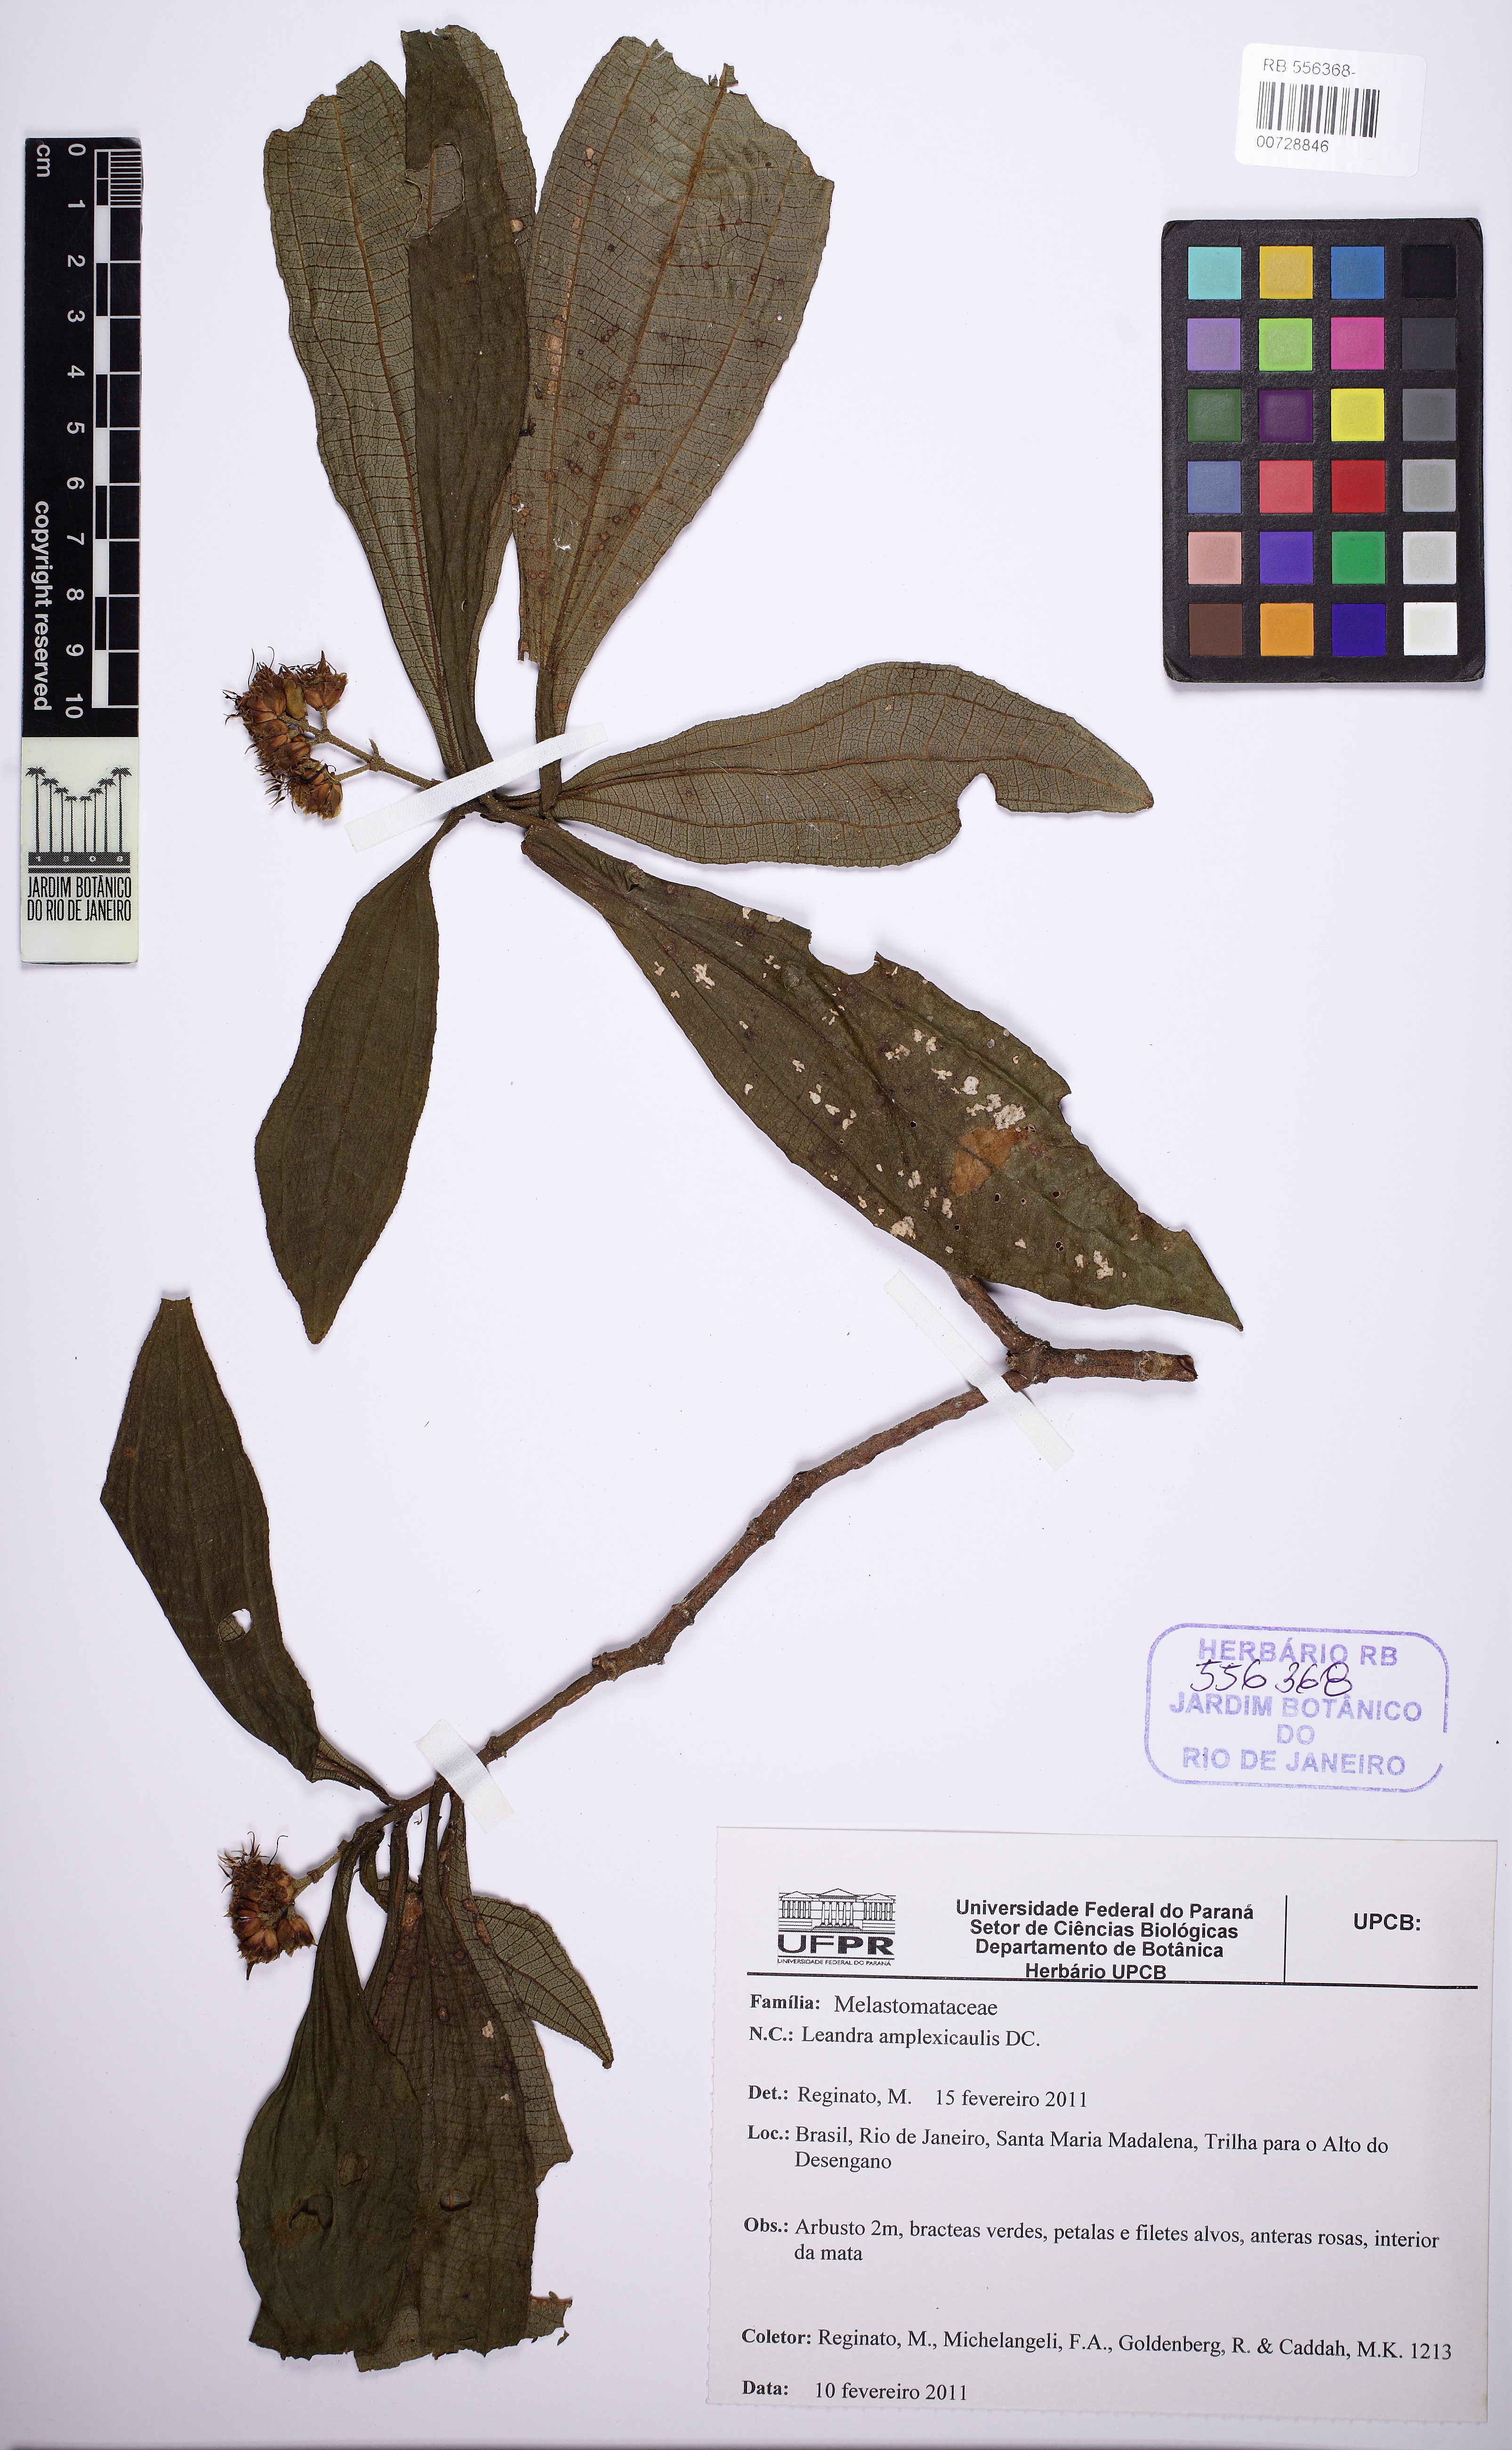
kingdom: Plantae
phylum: Tracheophyta
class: Magnoliopsida
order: Myrtales
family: Melastomataceae
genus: Miconia
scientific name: Miconia pectinata
